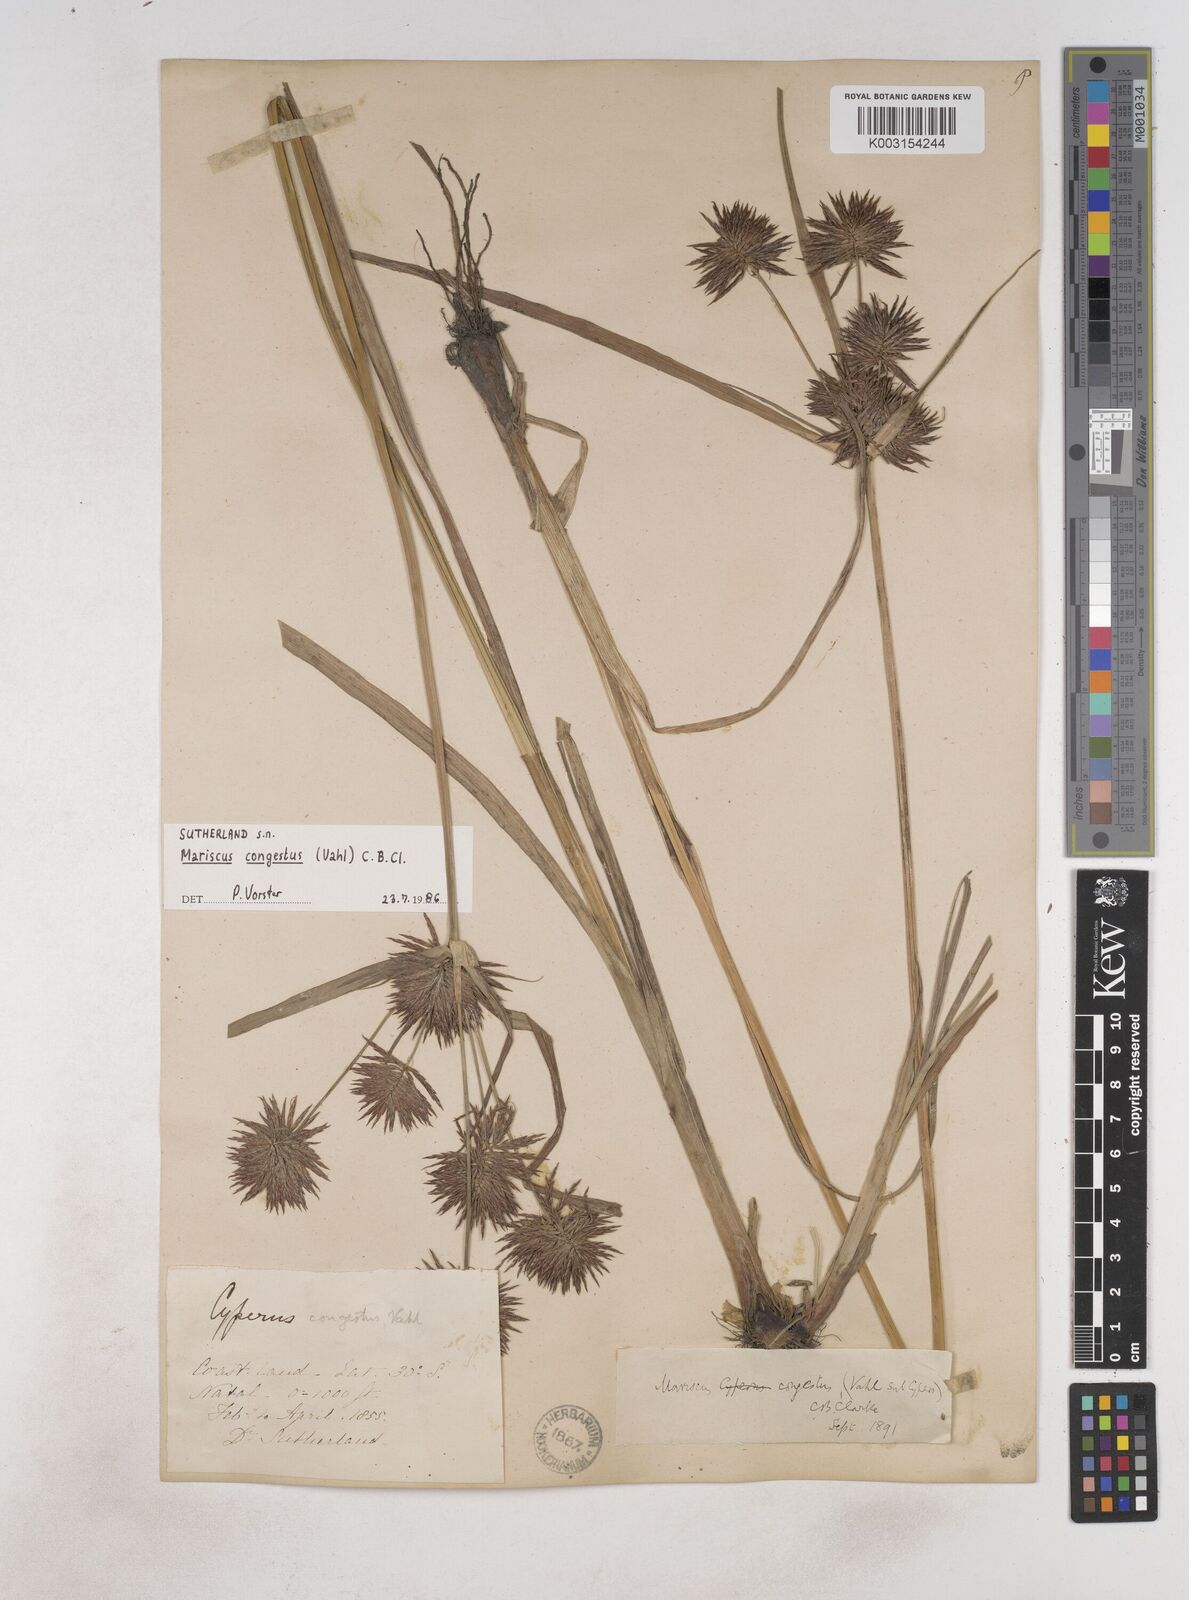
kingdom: Plantae
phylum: Tracheophyta
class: Liliopsida
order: Poales
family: Cyperaceae
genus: Cyperus
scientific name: Cyperus congestus
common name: Dense flat sedge
